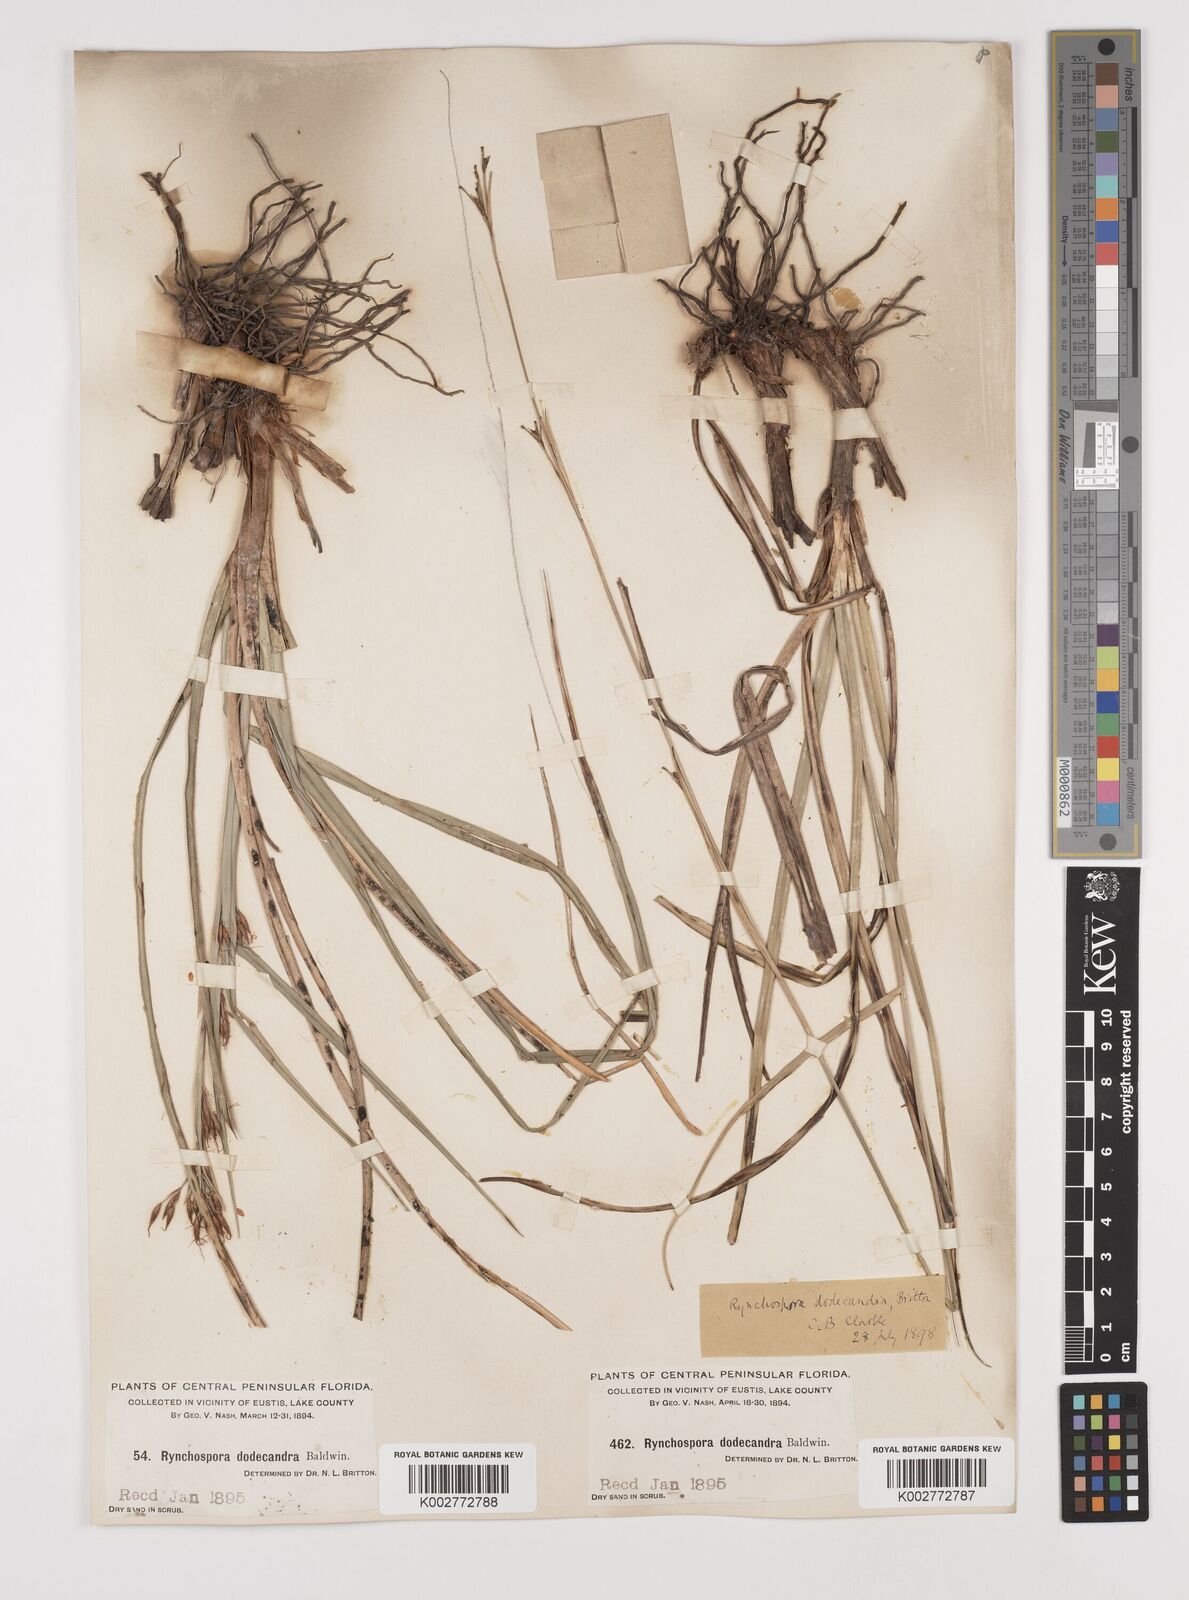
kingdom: Plantae
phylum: Tracheophyta
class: Liliopsida
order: Poales
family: Cyperaceae
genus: Rhynchospora
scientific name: Rhynchospora megalocarpa
